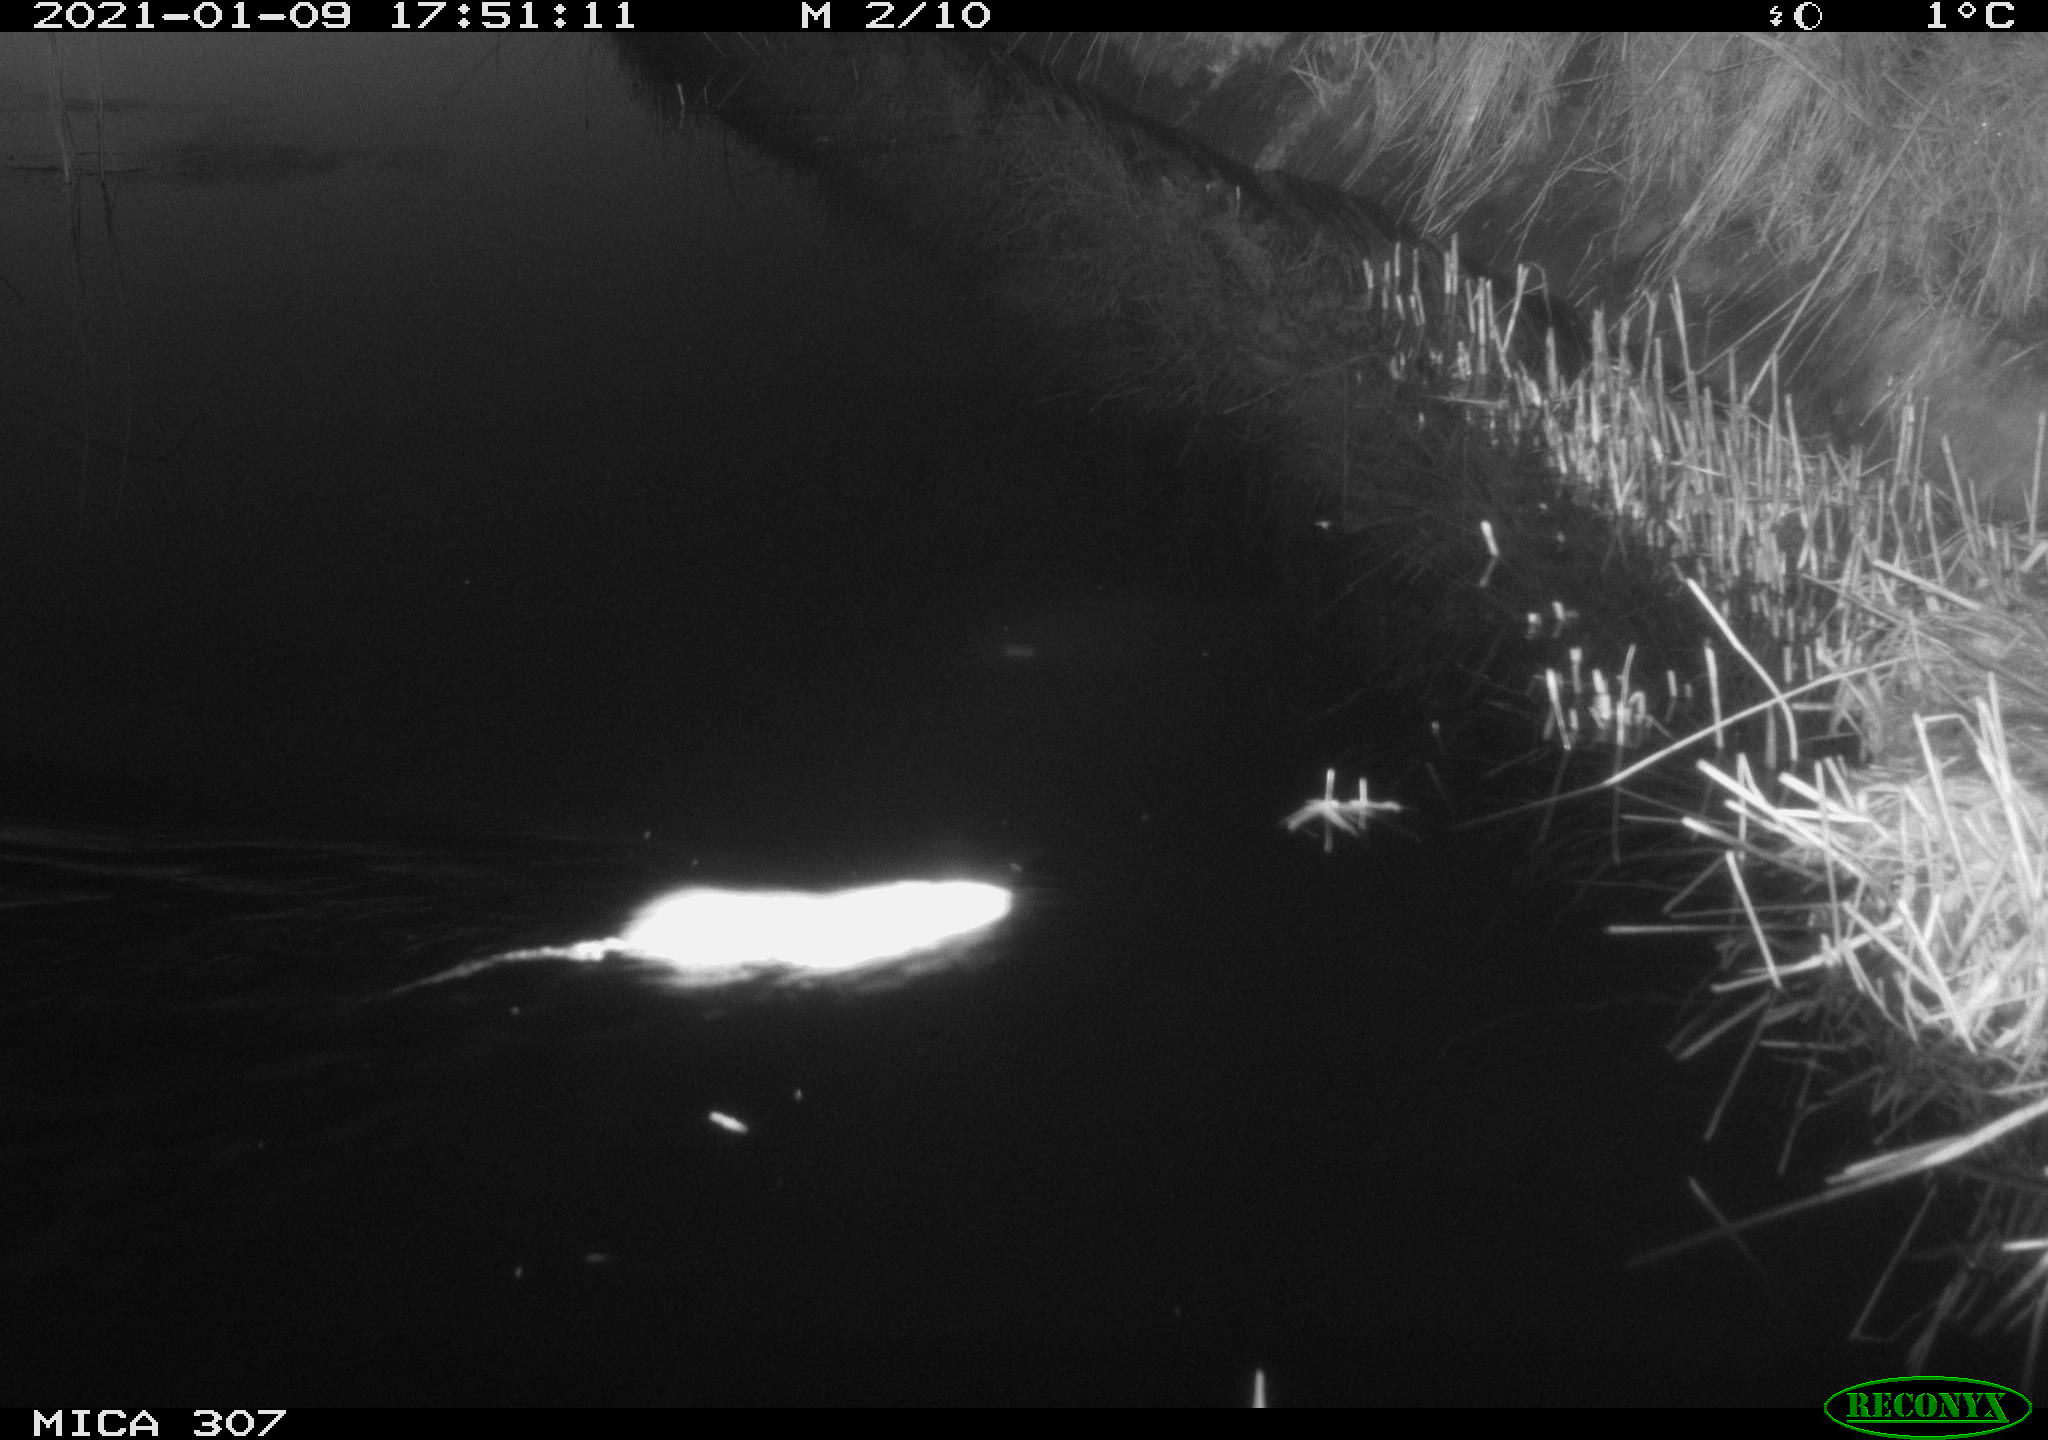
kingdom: Animalia
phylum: Chordata
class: Mammalia
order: Rodentia
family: Muridae
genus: Rattus
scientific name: Rattus norvegicus
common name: Brown rat
